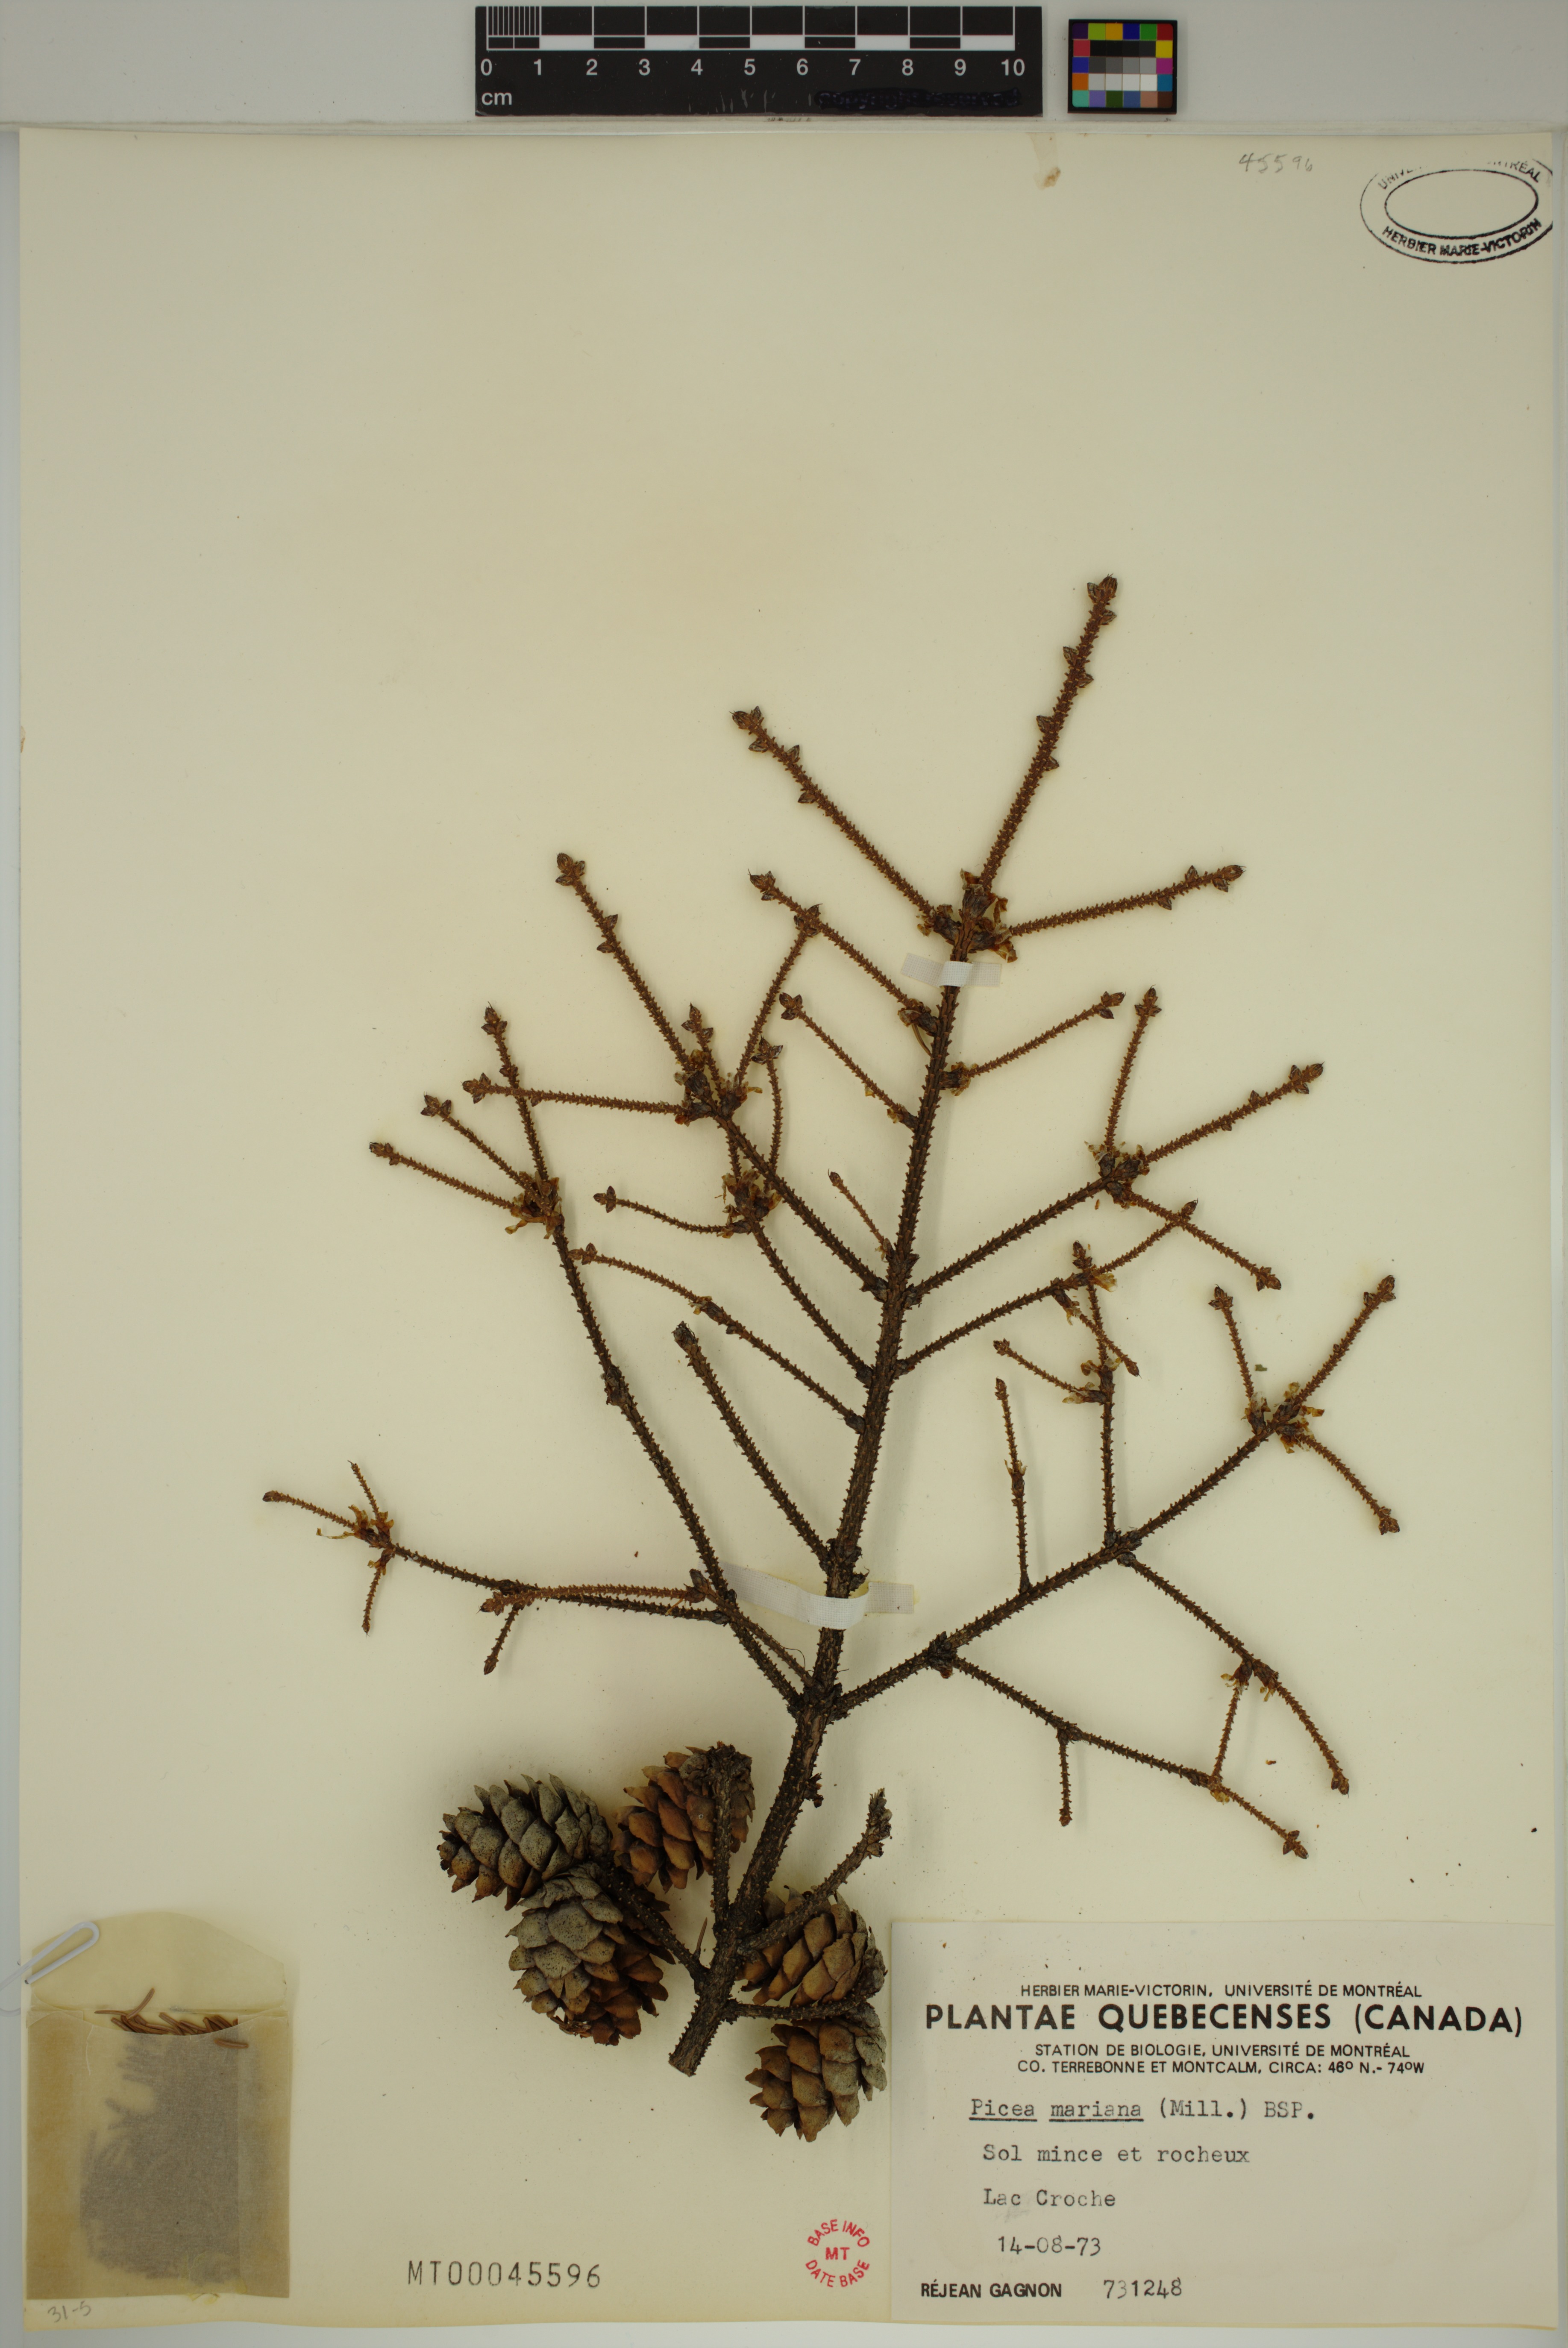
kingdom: Plantae
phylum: Tracheophyta
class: Pinopsida
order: Pinales
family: Pinaceae
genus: Picea
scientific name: Picea mariana
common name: Black spruce
